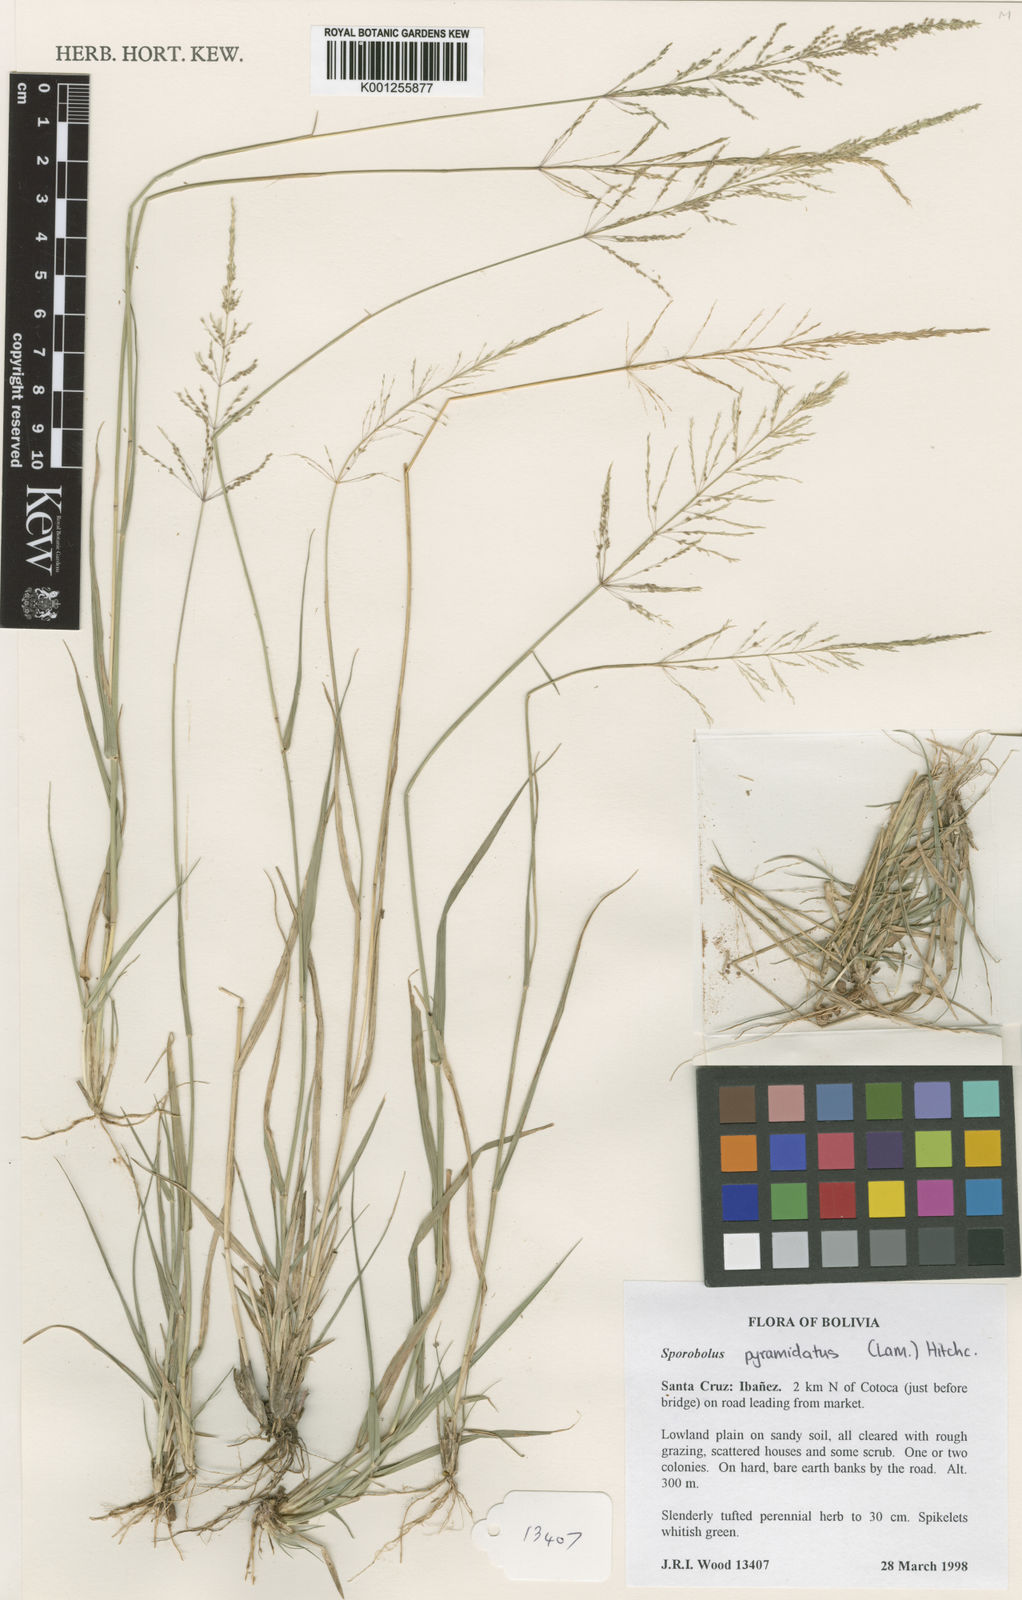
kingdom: Plantae
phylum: Tracheophyta
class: Liliopsida
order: Poales
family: Poaceae
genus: Sporobolus
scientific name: Sporobolus pyramidatus
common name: Whorled dropseed
